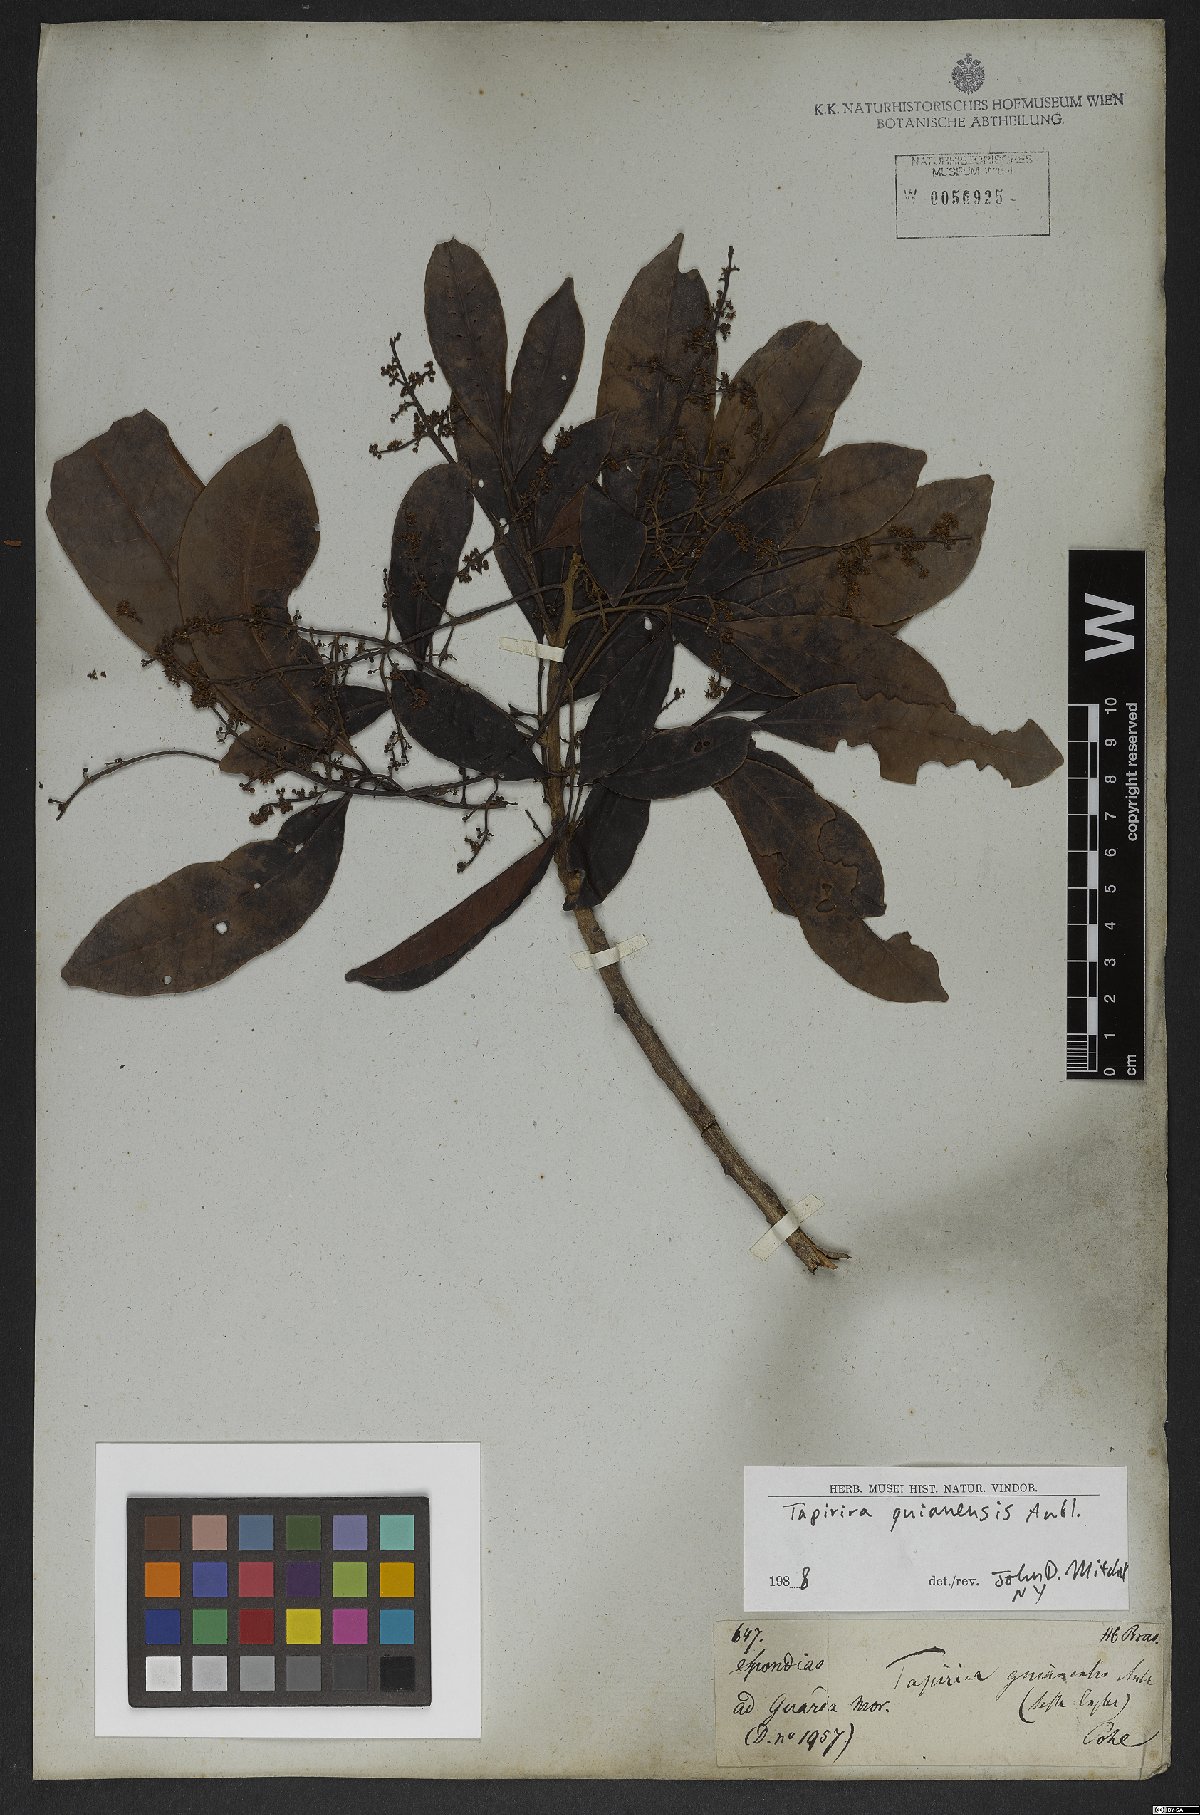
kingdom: Plantae
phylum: Tracheophyta
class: Magnoliopsida
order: Sapindales
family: Anacardiaceae
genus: Tapirira
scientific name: Tapirira guianensis
